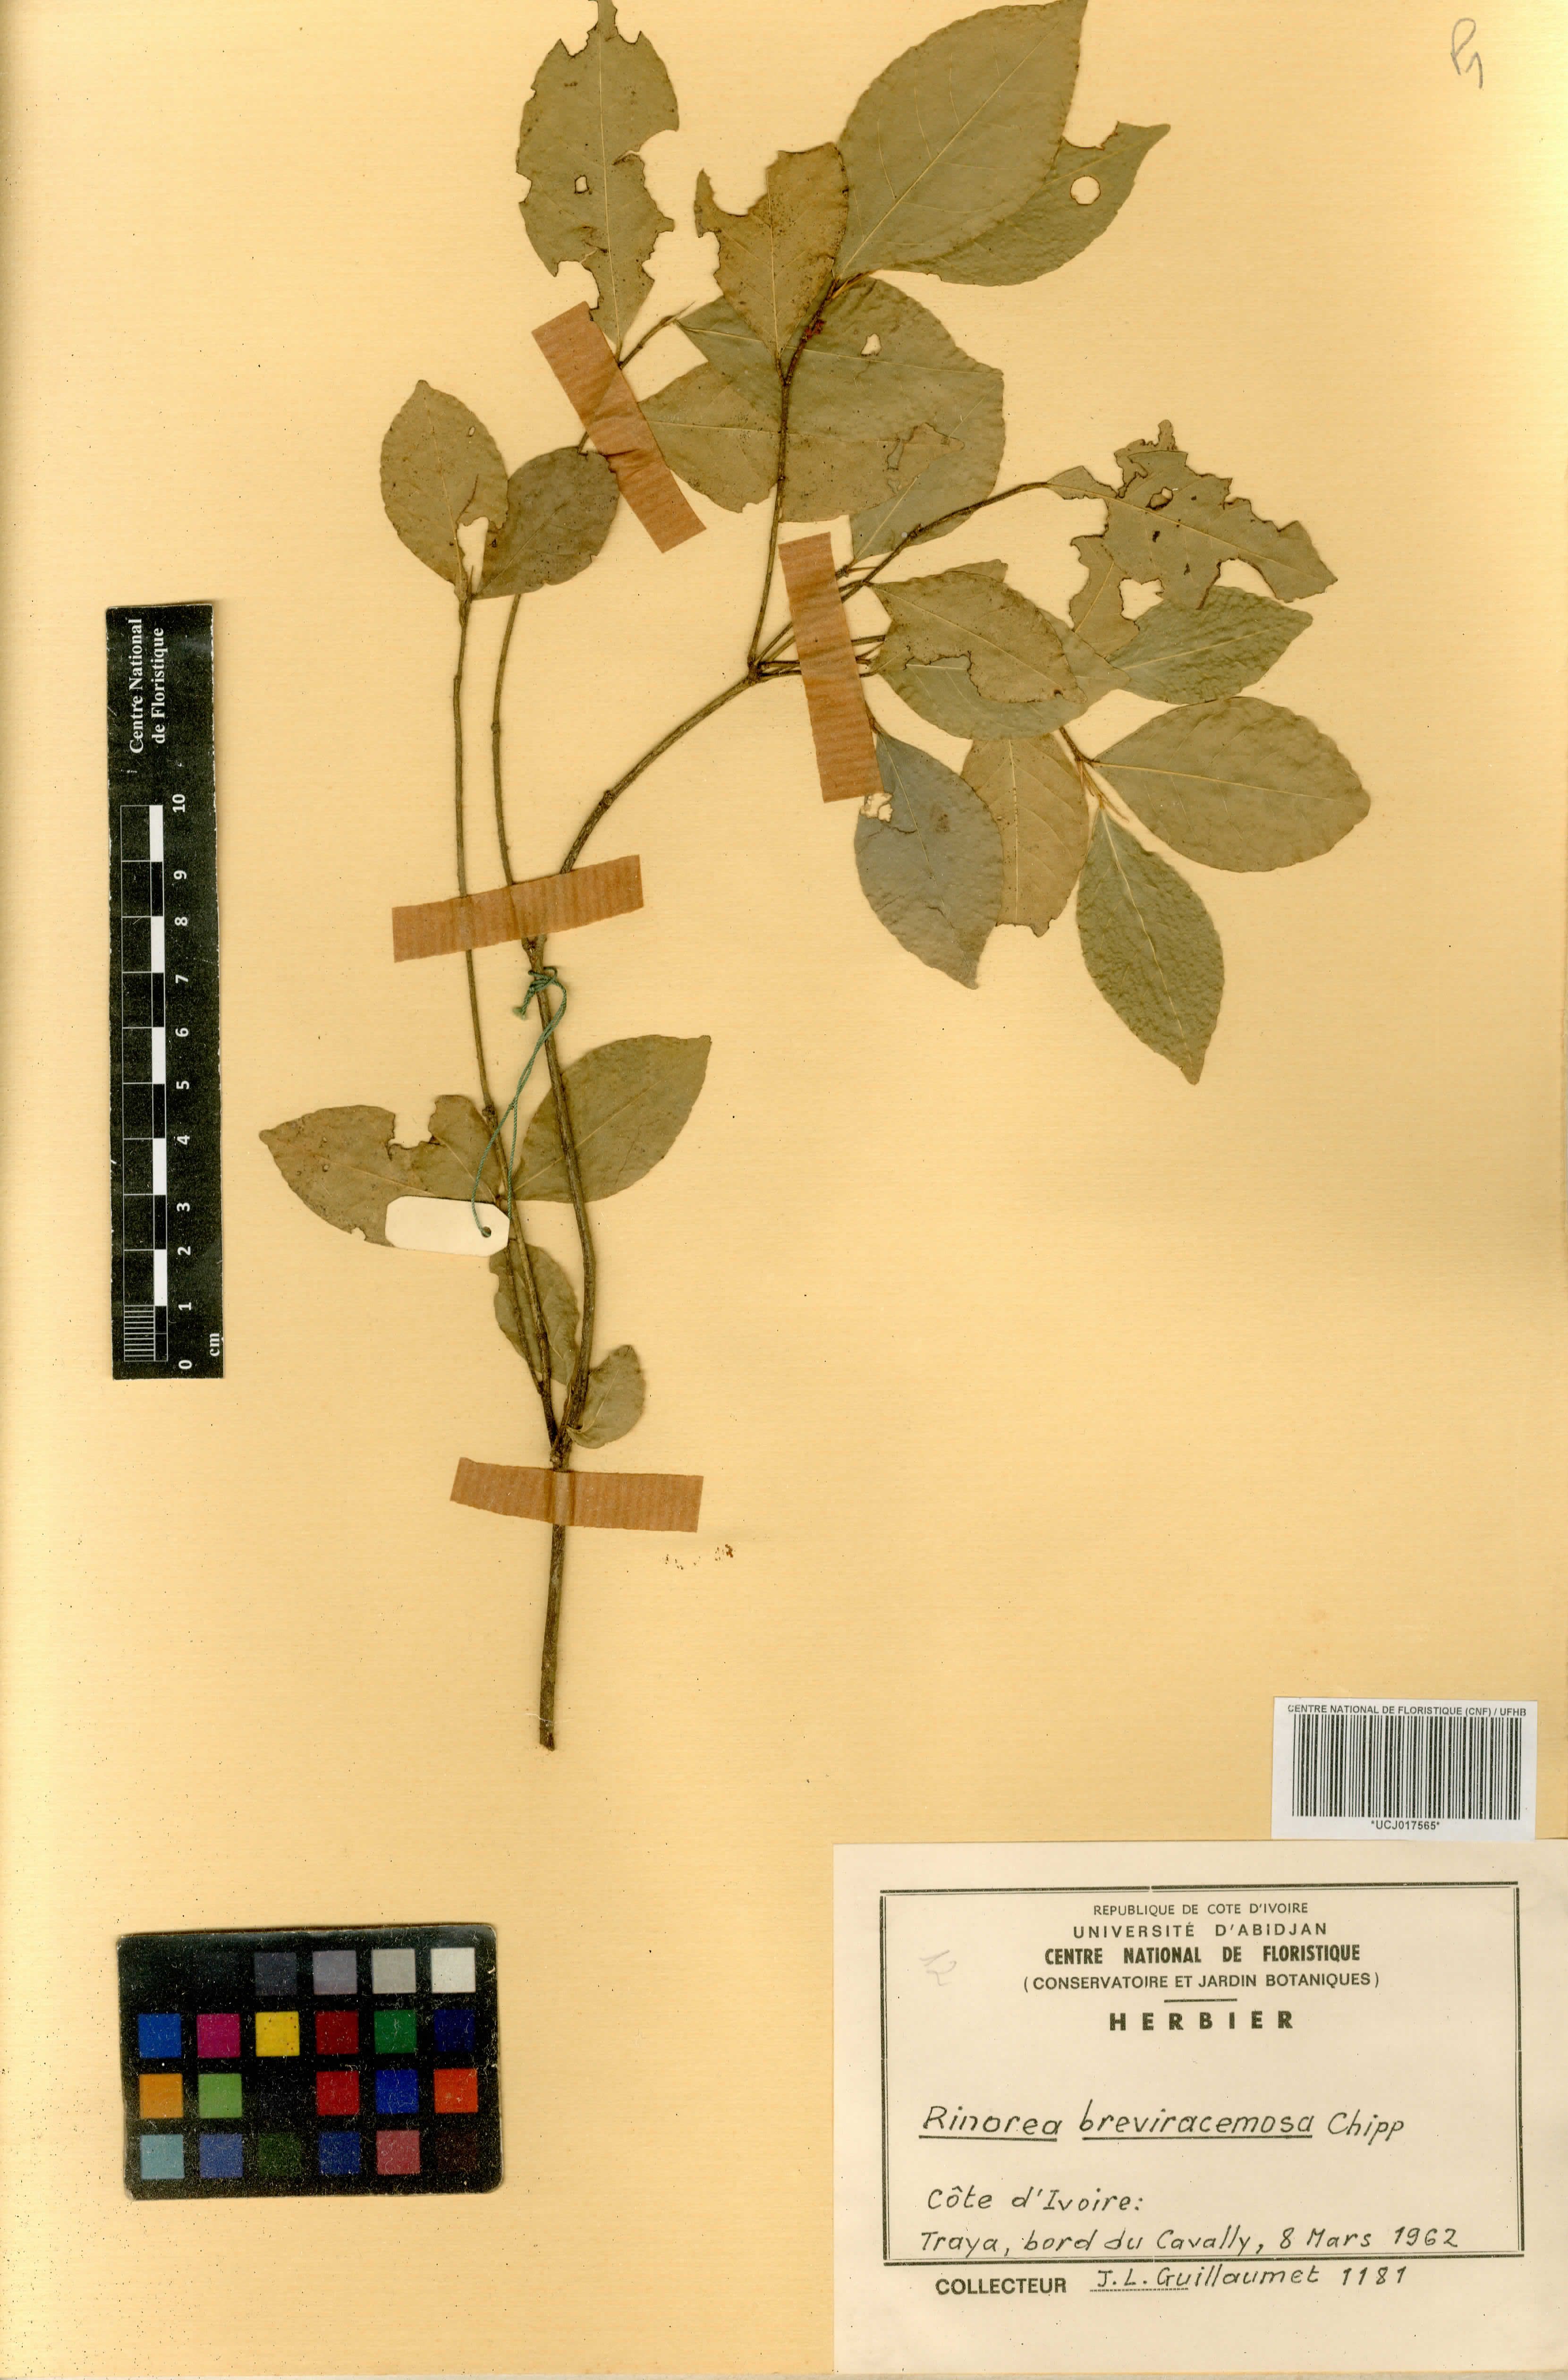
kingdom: Plantae
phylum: Tracheophyta
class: Magnoliopsida
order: Malpighiales
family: Violaceae
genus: Rinorea
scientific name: Rinorea breviracemosa
